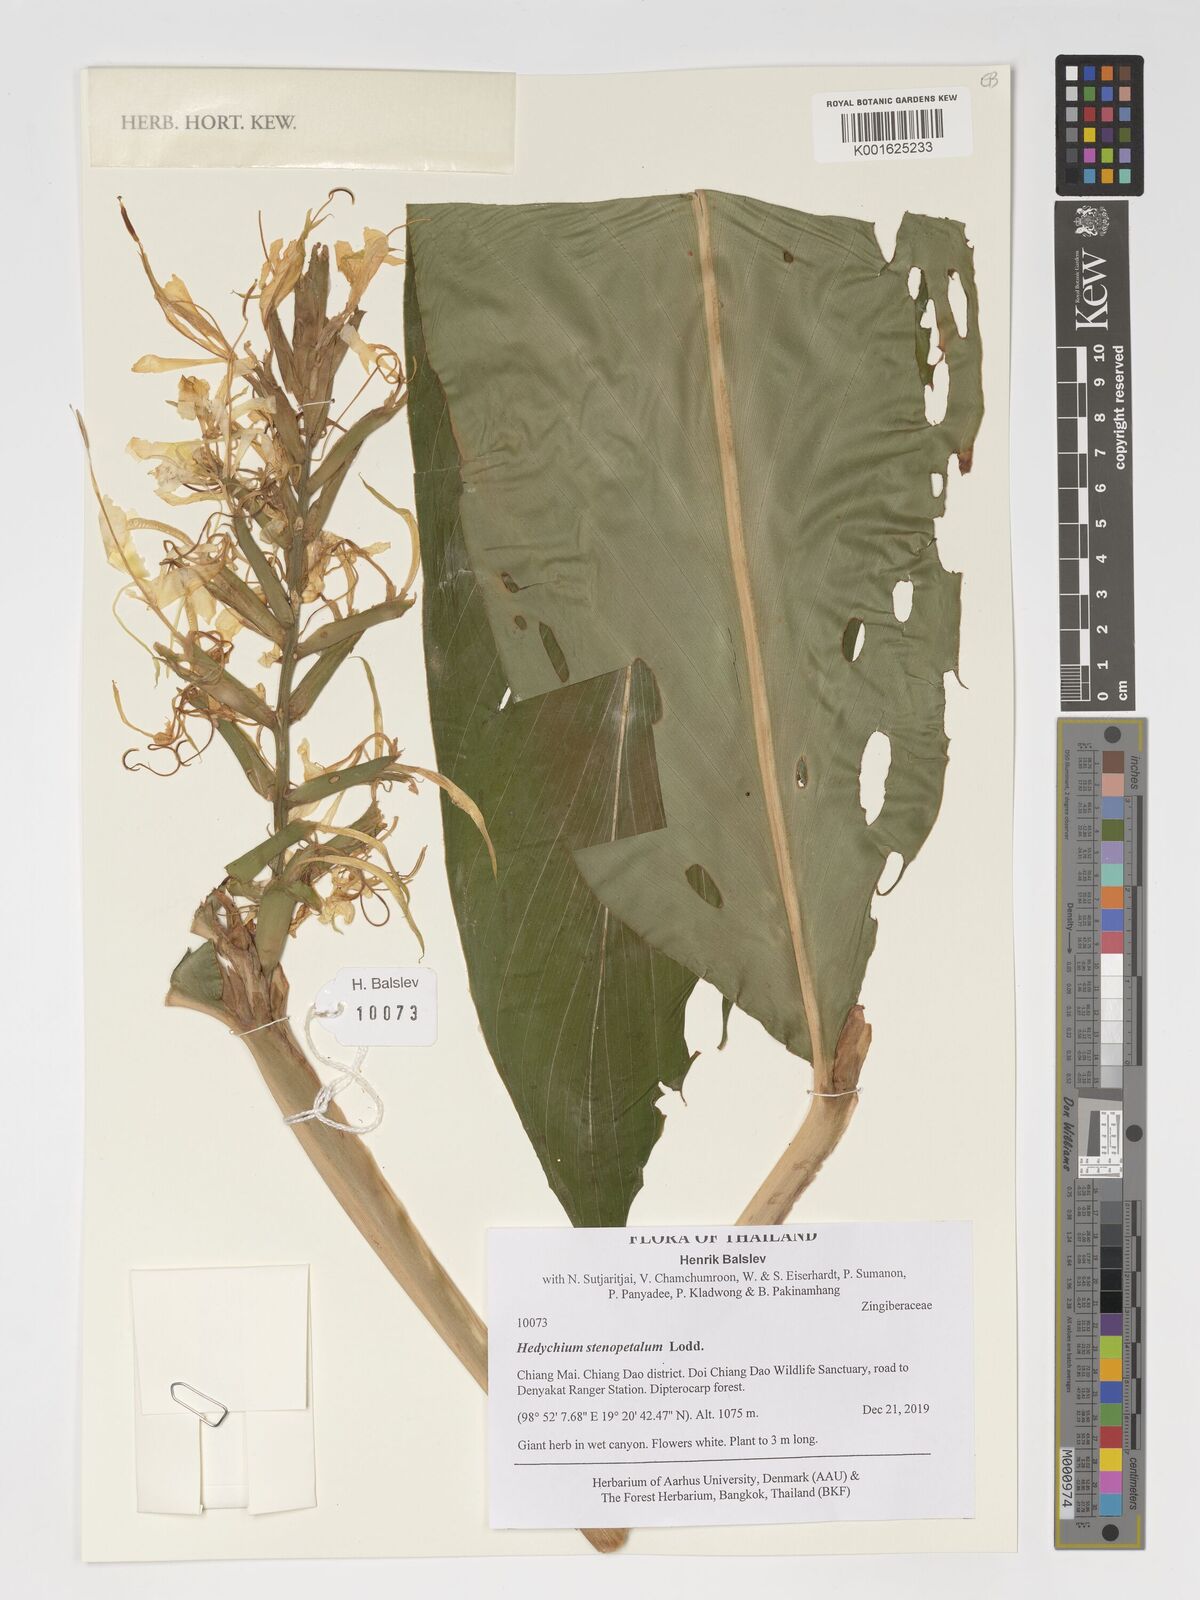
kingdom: Plantae
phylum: Tracheophyta
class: Liliopsida
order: Zingiberales
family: Zingiberaceae
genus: Hedychium
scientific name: Hedychium stenopetalum
